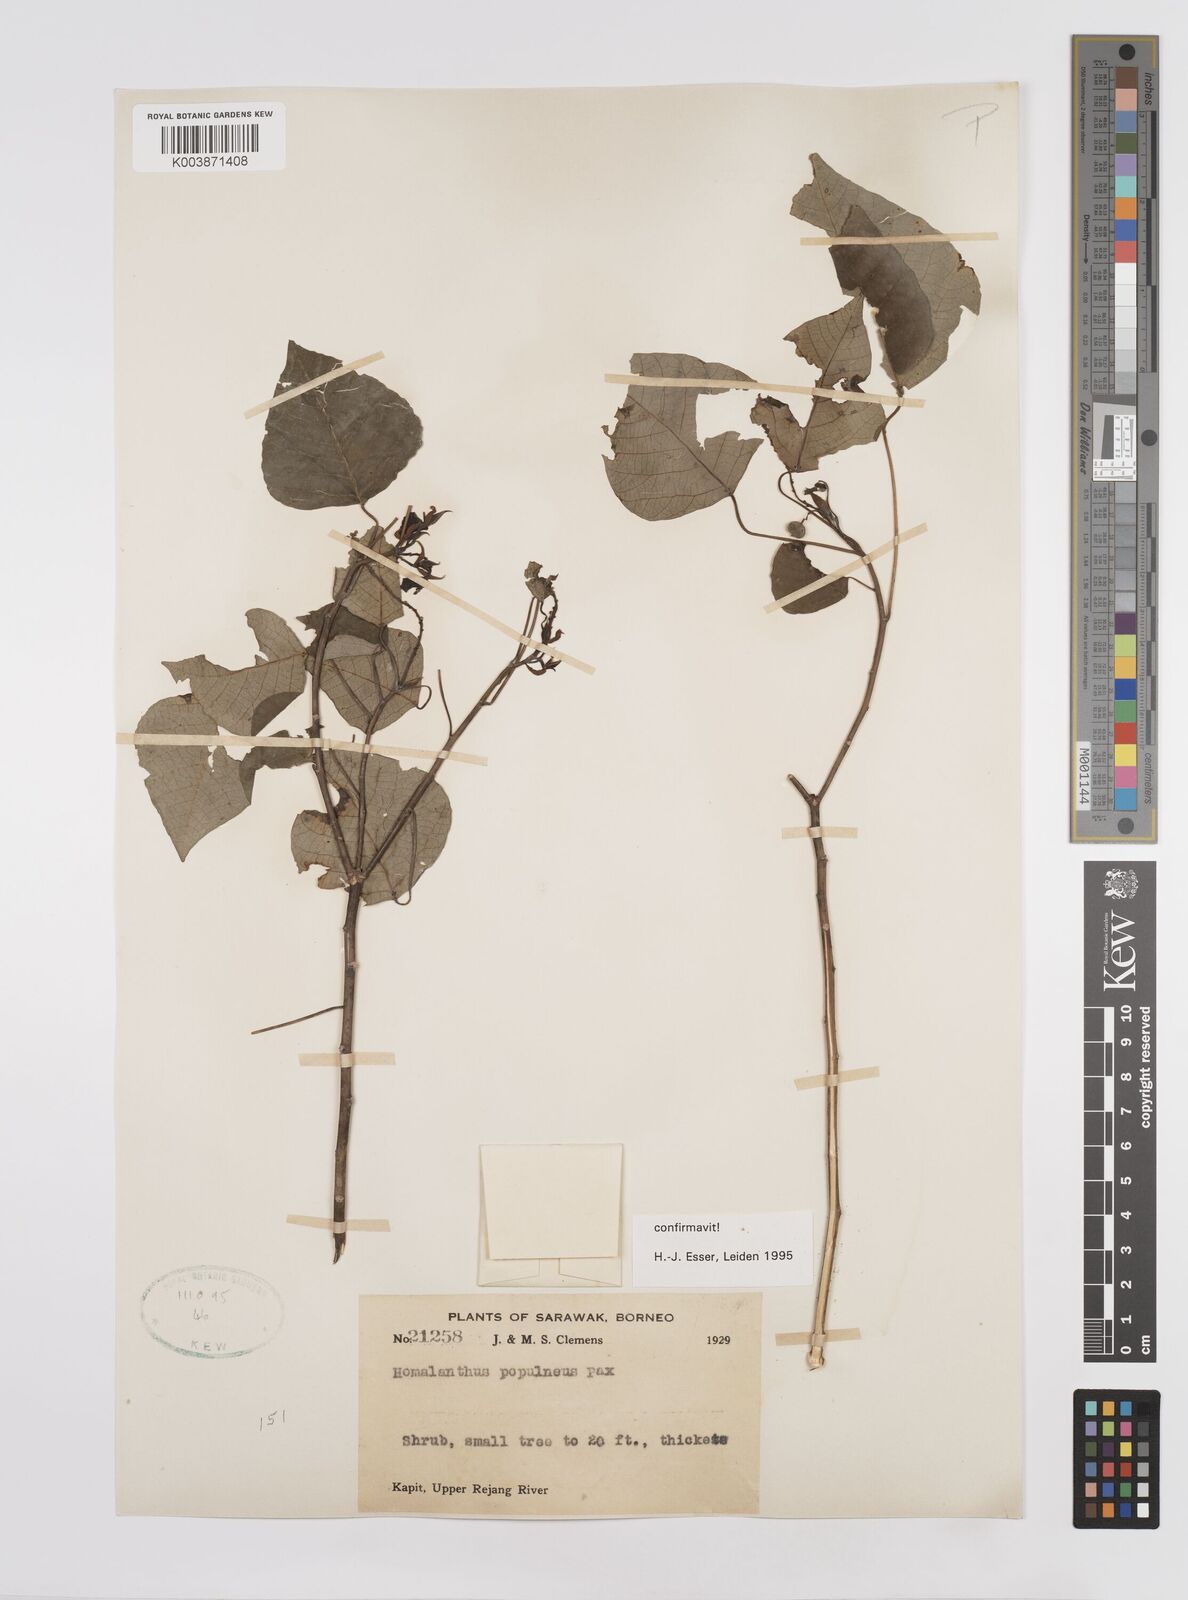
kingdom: Plantae
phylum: Tracheophyta
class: Magnoliopsida
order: Malpighiales
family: Euphorbiaceae
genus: Homalanthus
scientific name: Homalanthus populneus
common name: Spurge
